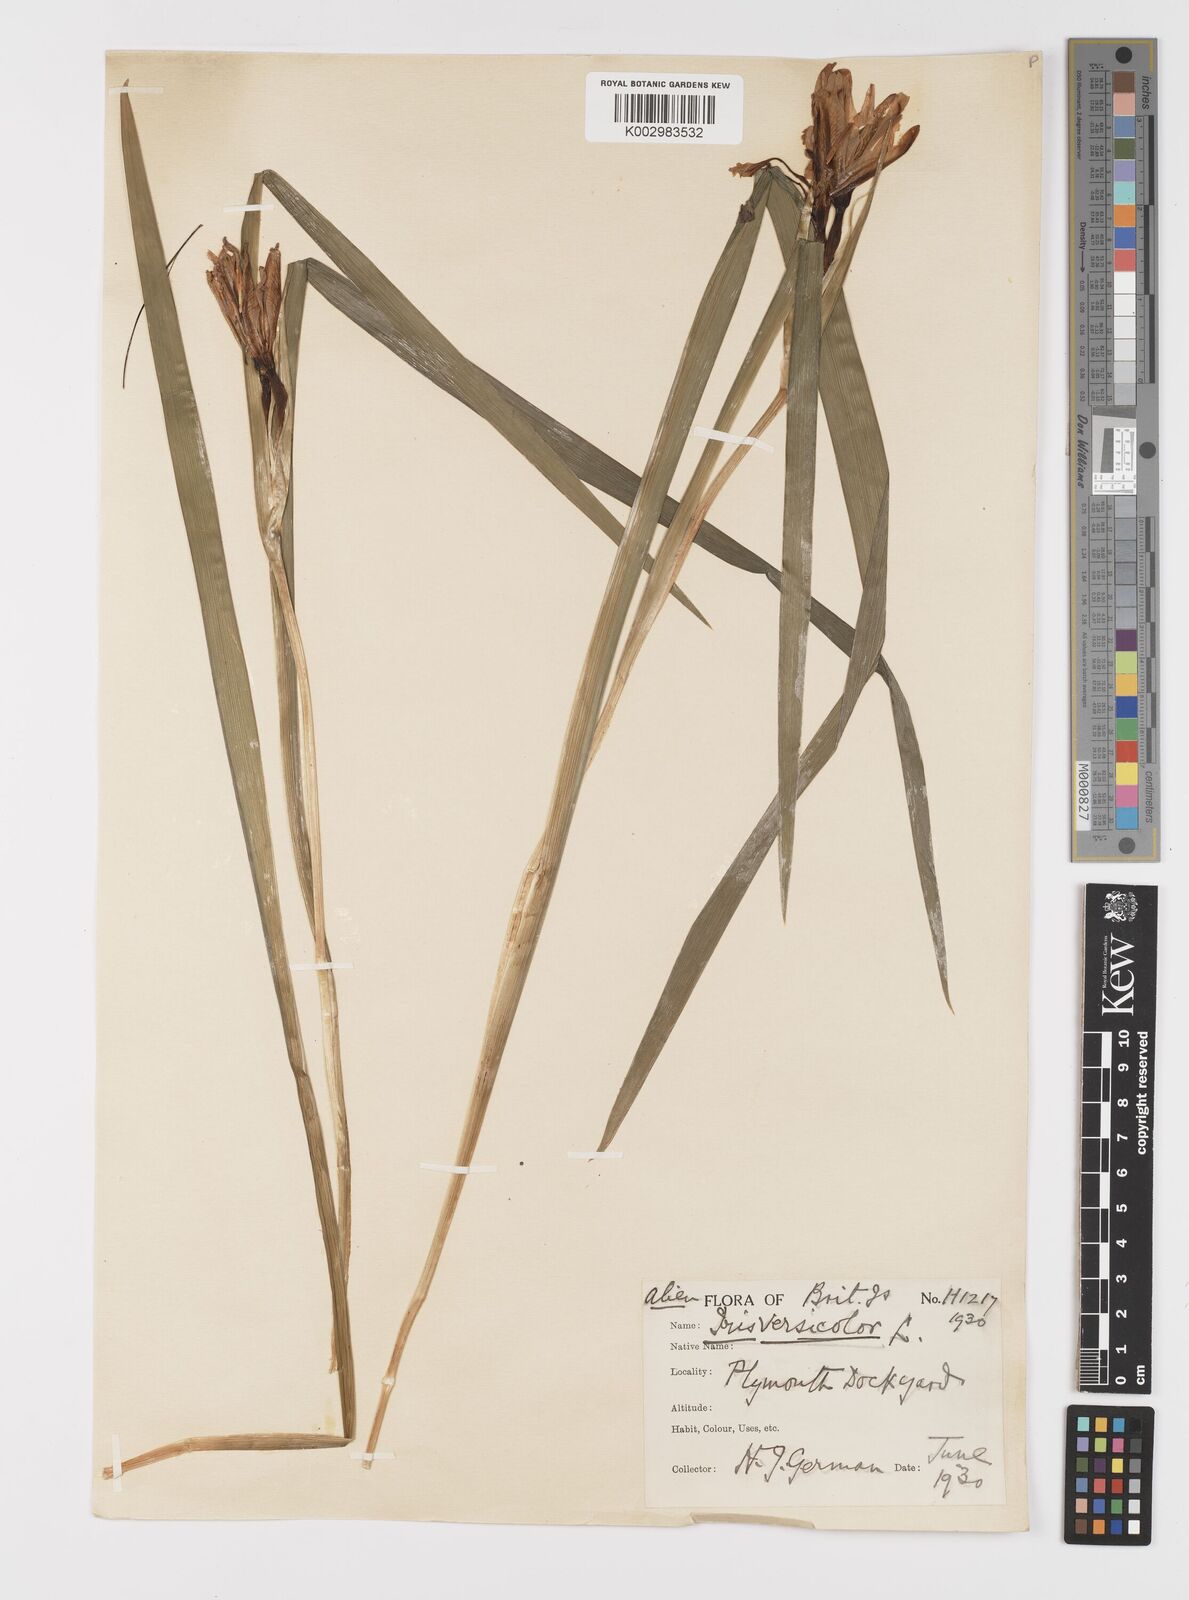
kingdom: Plantae
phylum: Tracheophyta
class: Liliopsida
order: Asparagales
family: Iridaceae
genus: Iris
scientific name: Iris versicolor
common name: Purple iris
